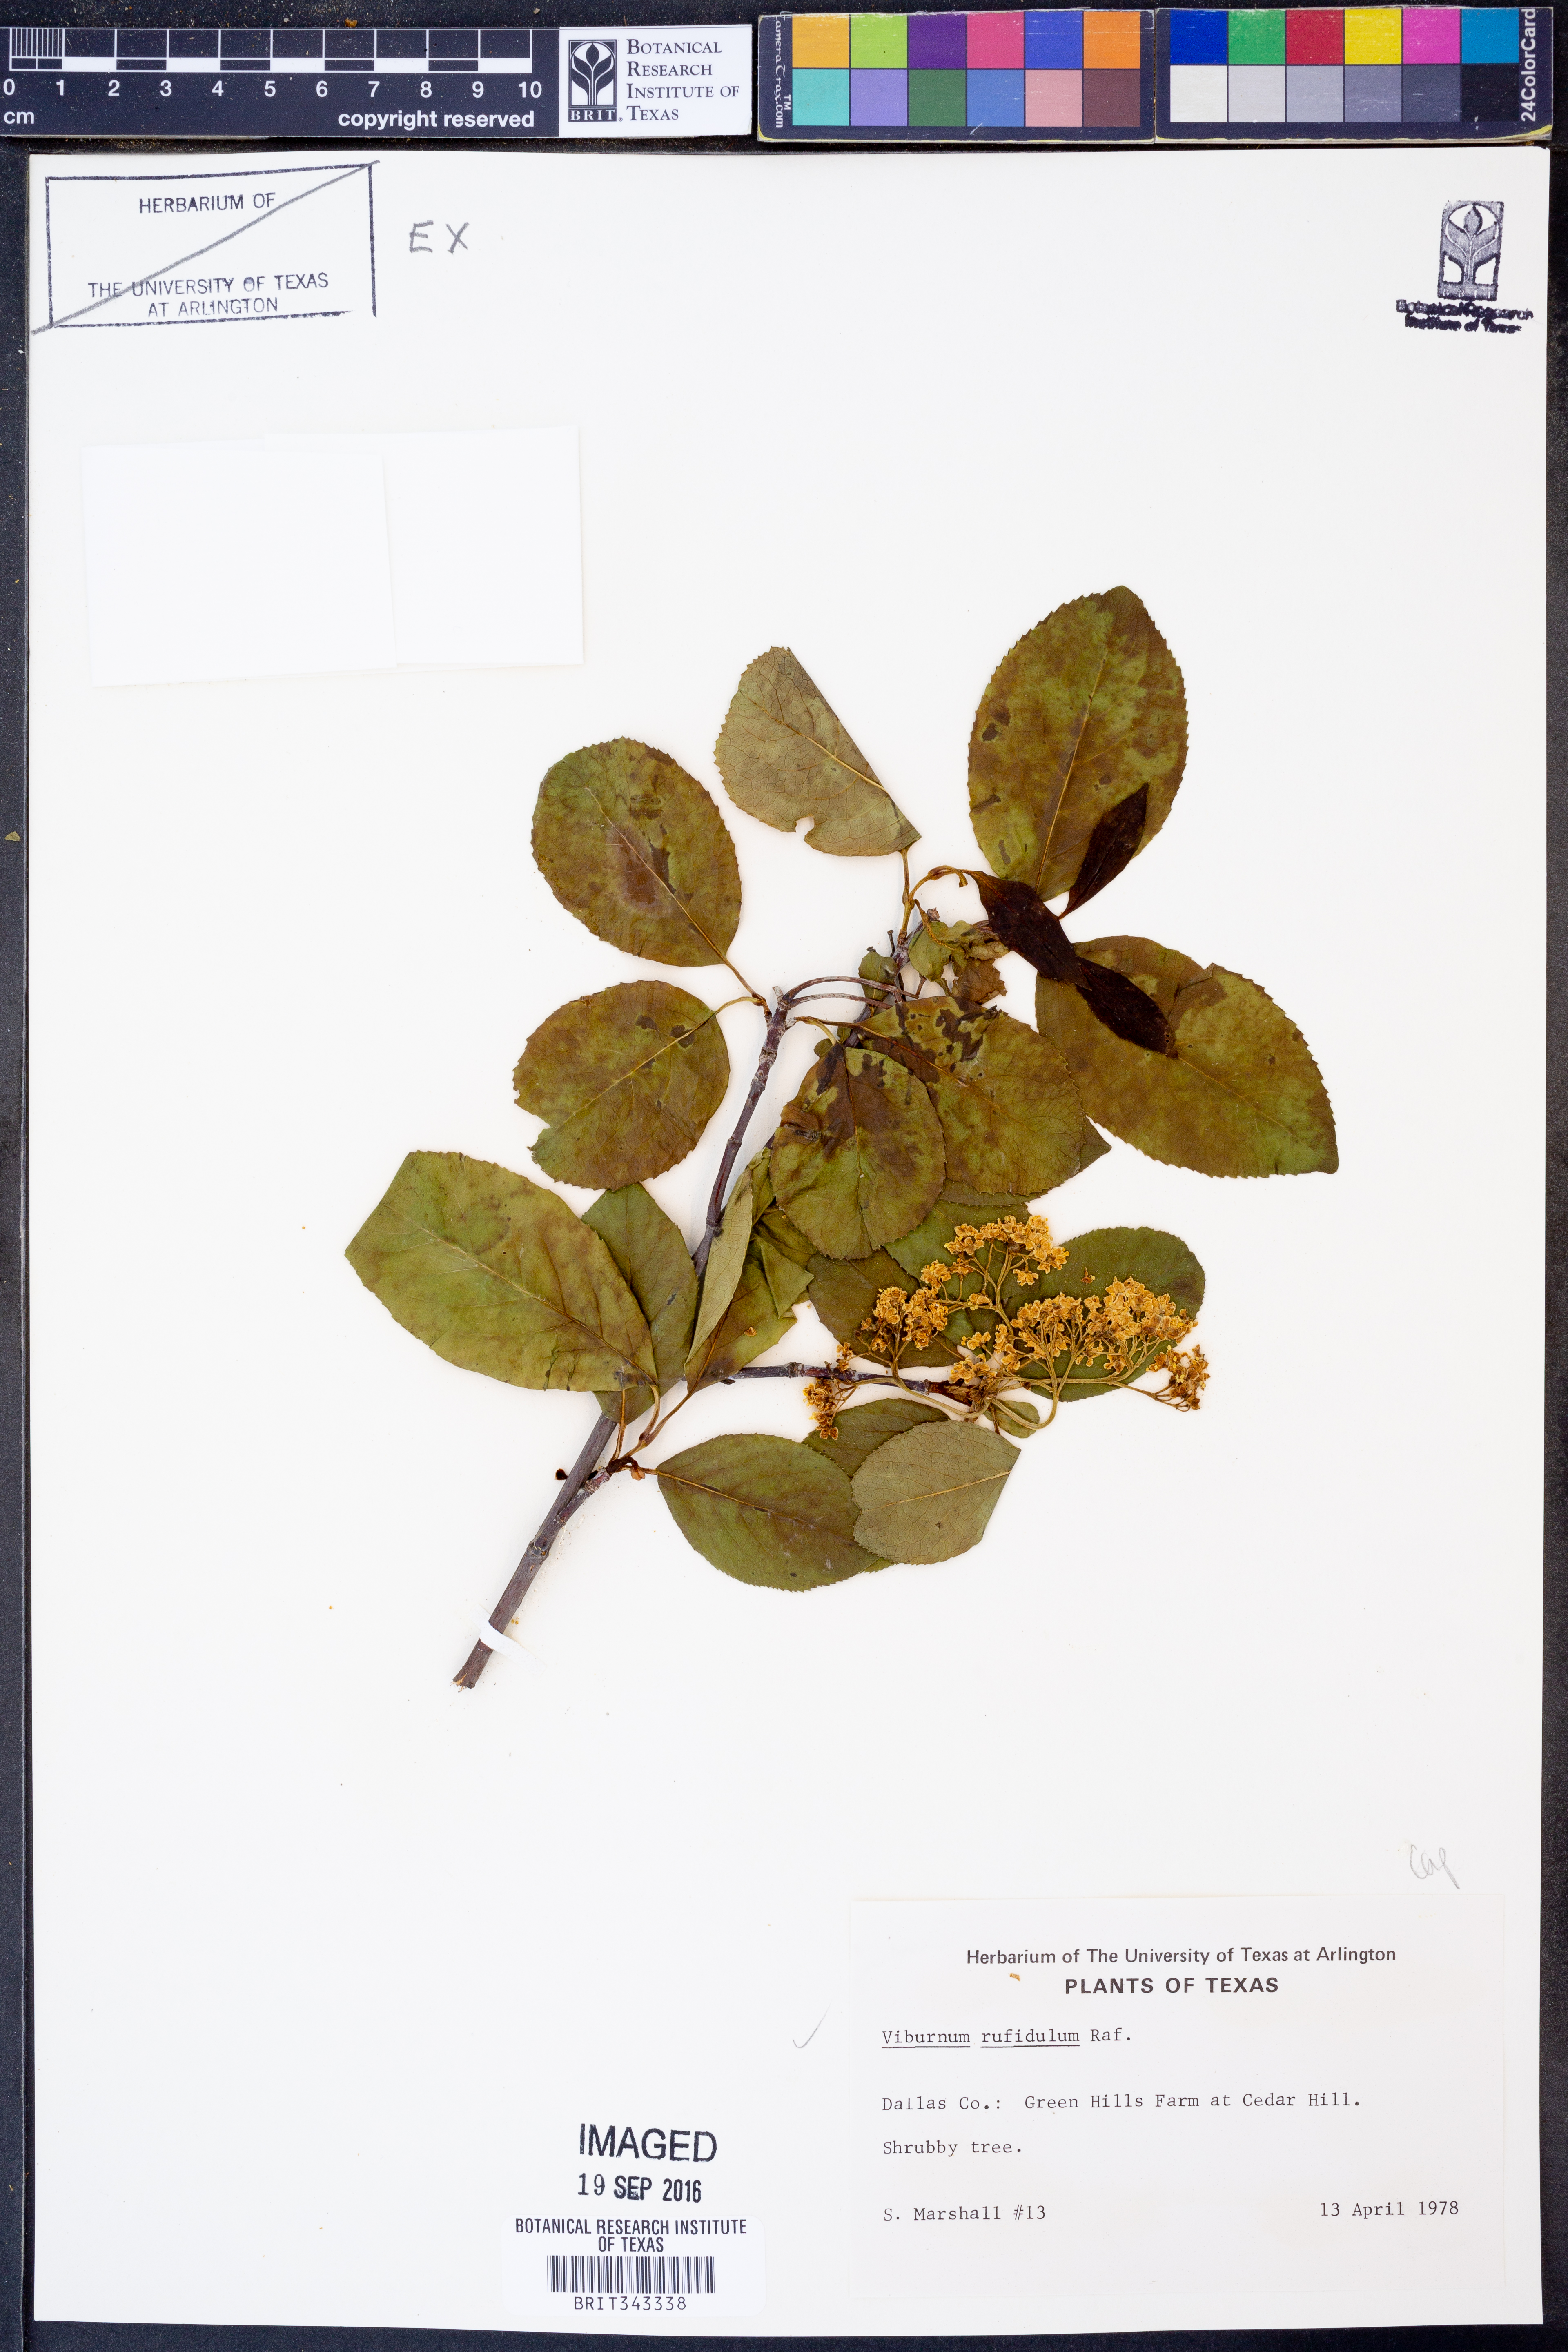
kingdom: Plantae
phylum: Tracheophyta
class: Magnoliopsida
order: Dipsacales
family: Viburnaceae
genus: Viburnum
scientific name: Viburnum rufidulum
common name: Blue haw
